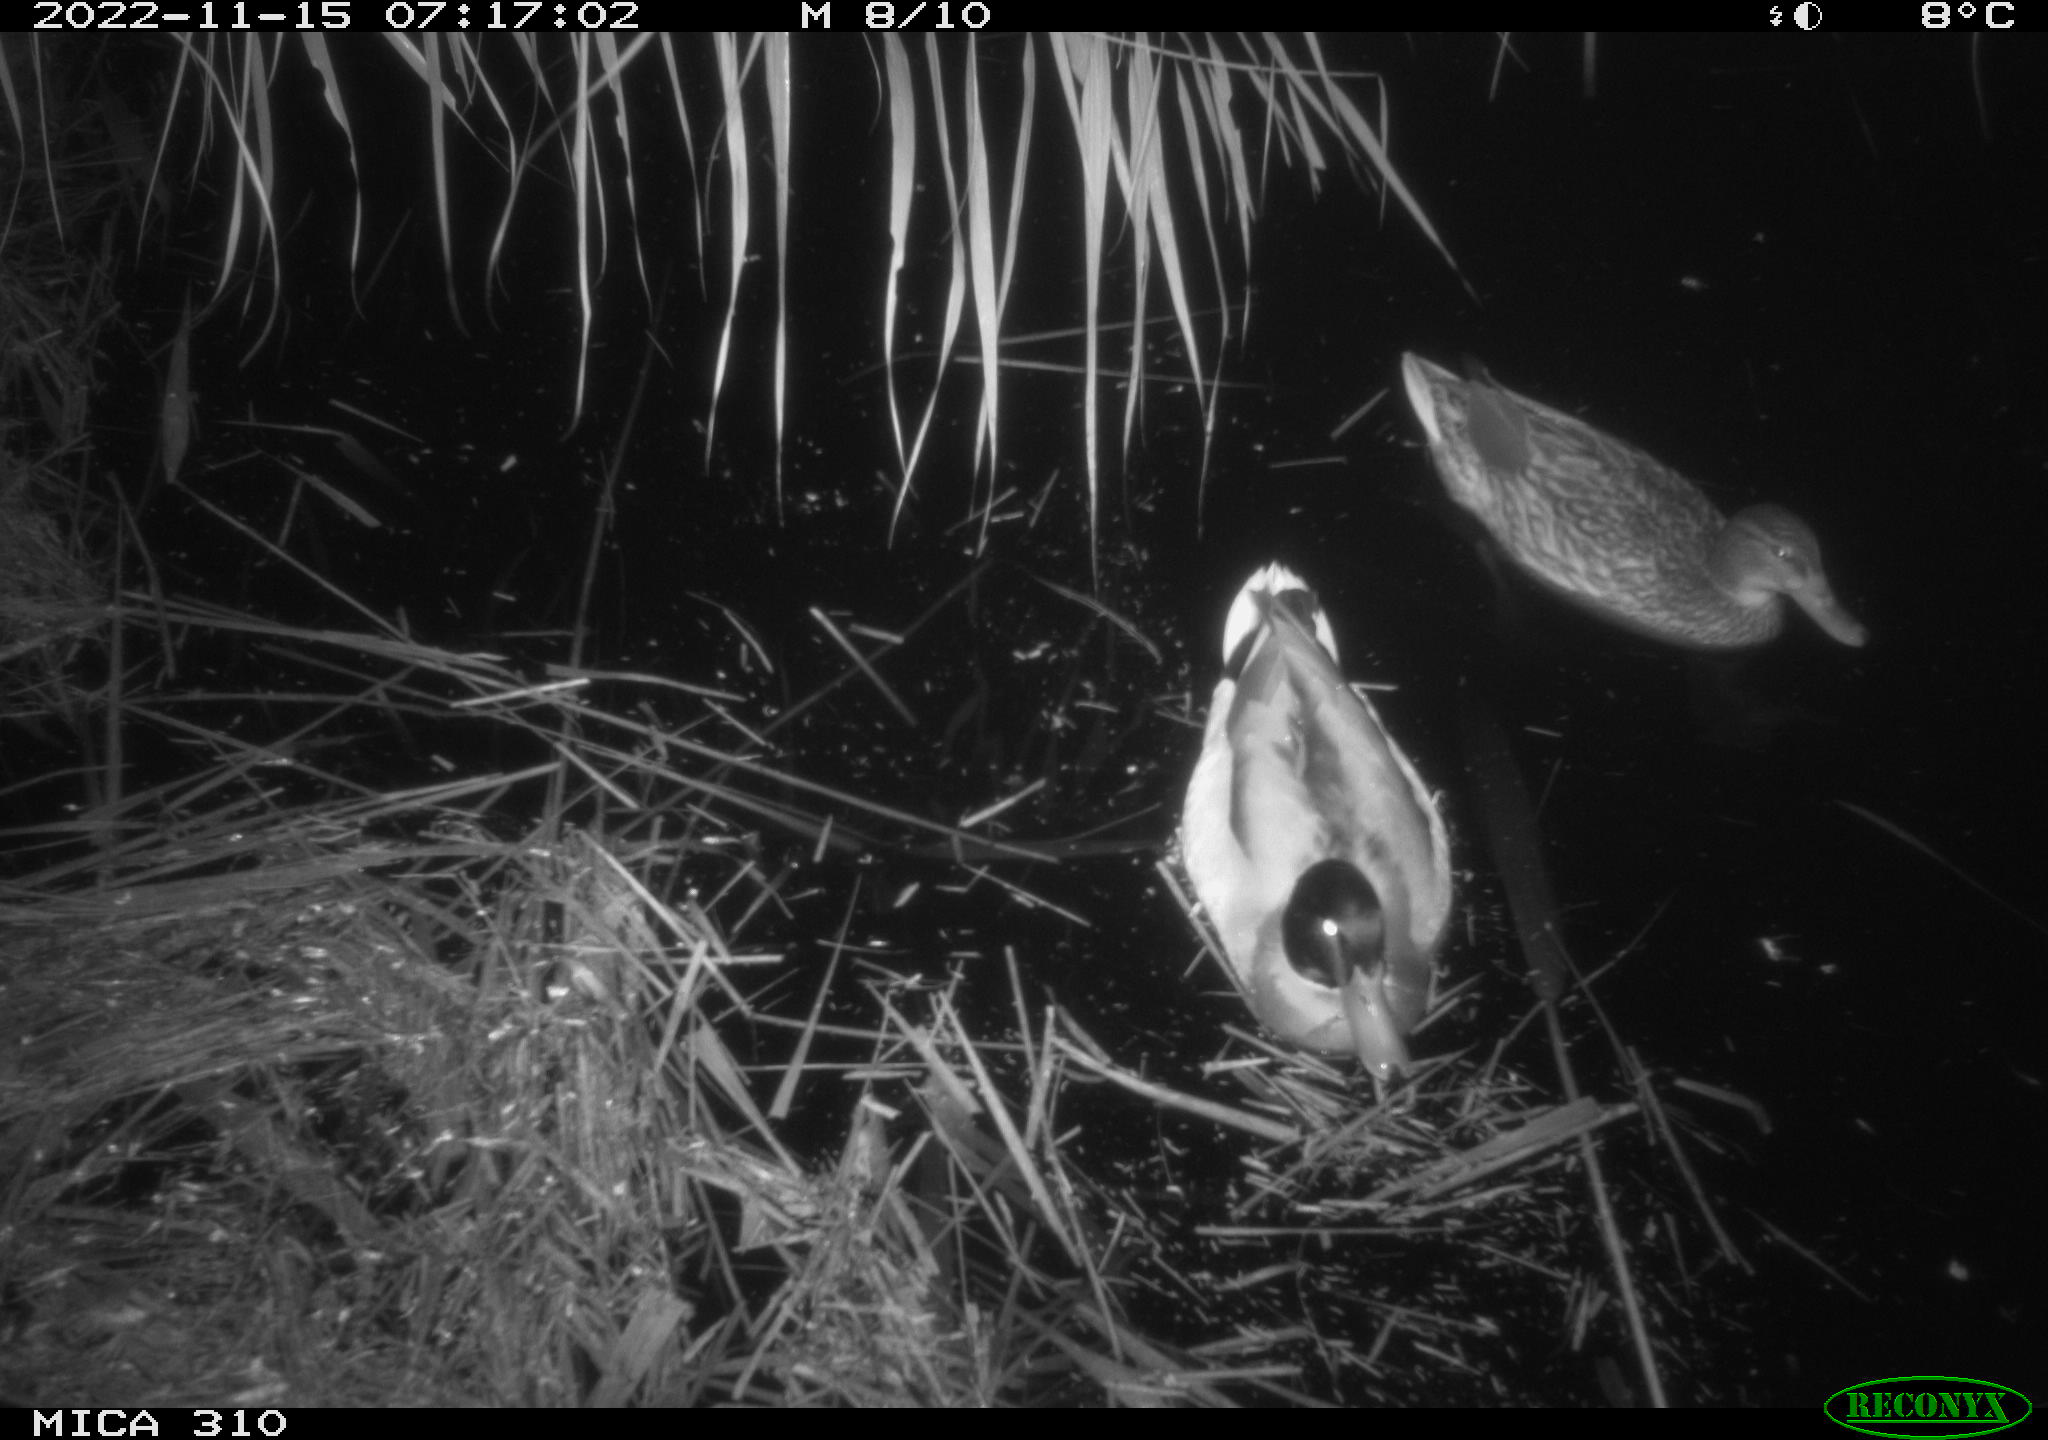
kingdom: Animalia
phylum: Chordata
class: Aves
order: Anseriformes
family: Anatidae
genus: Anas
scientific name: Anas
